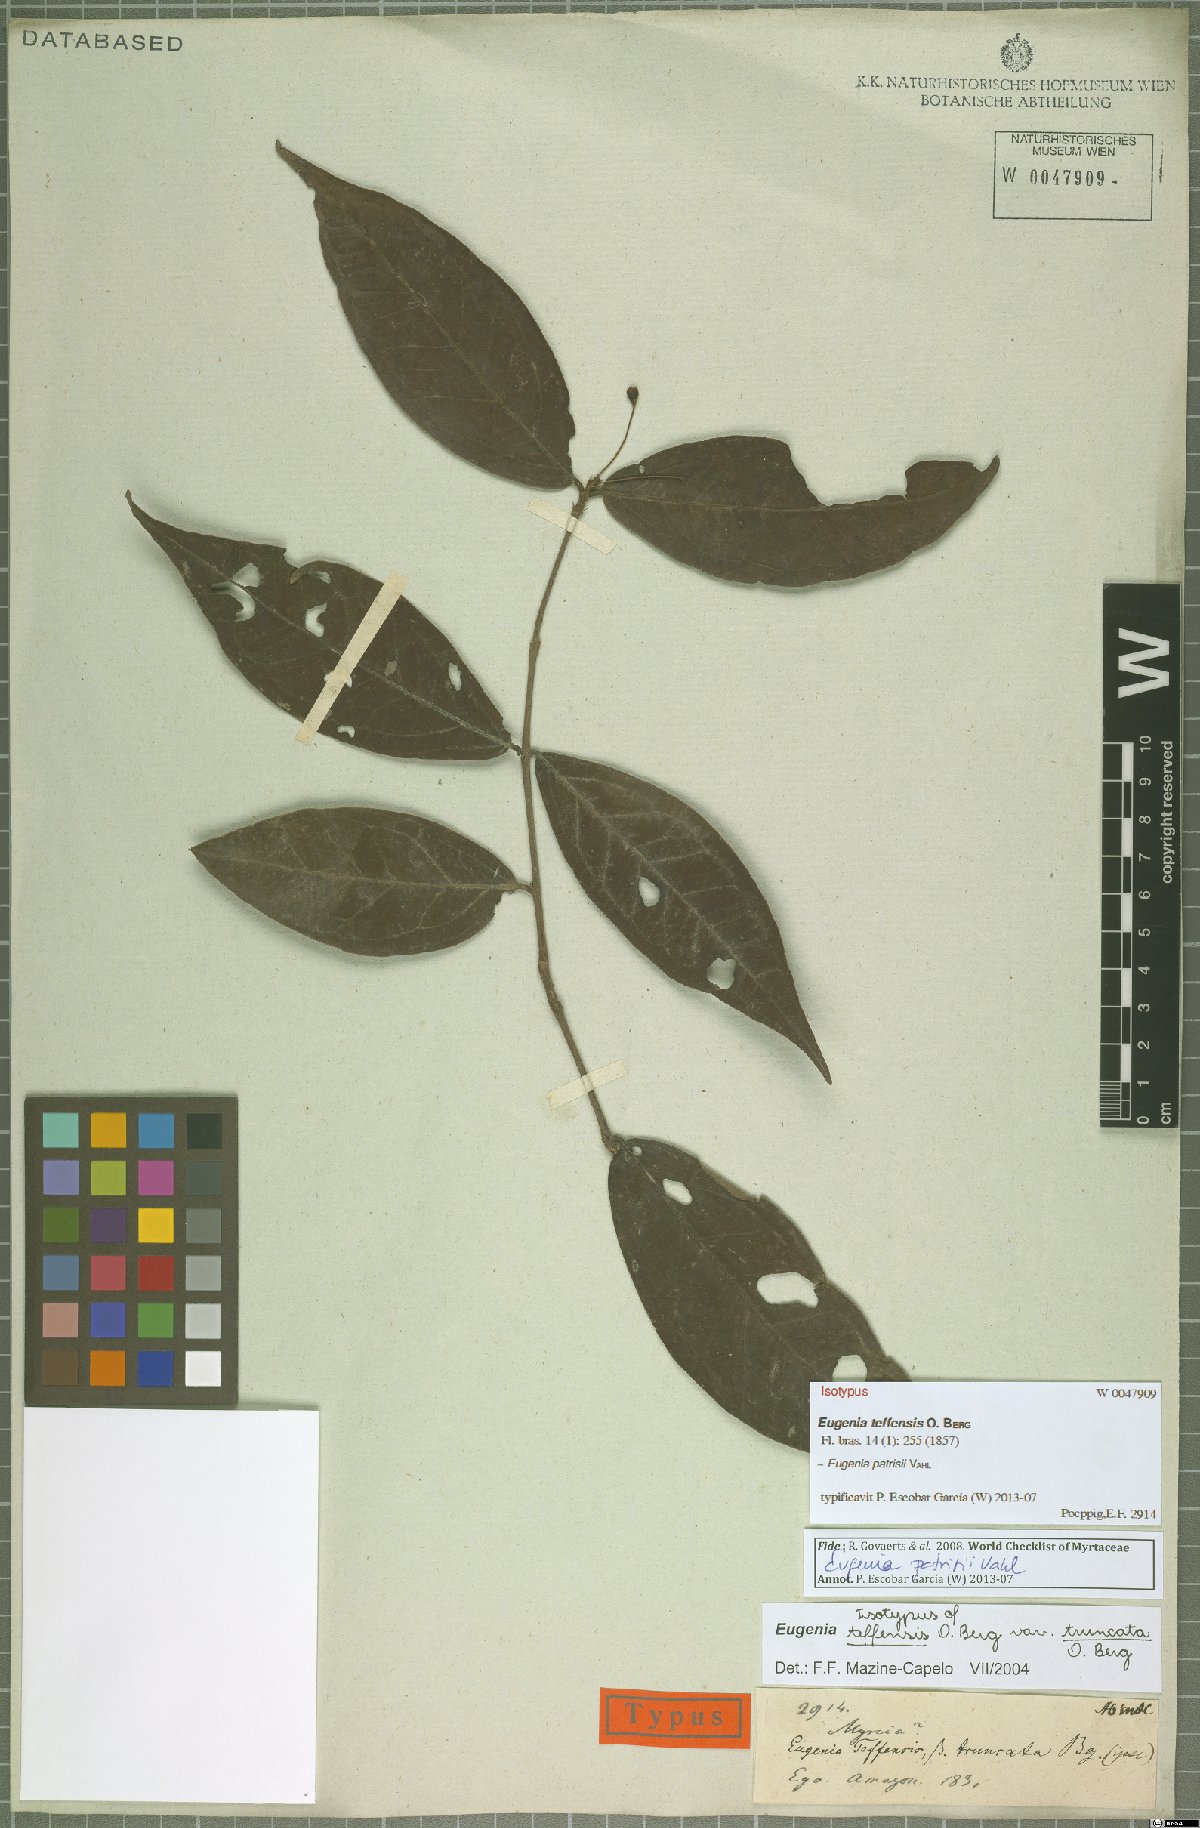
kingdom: Plantae
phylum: Tracheophyta
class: Magnoliopsida
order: Myrtales
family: Myrtaceae
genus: Eugenia
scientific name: Eugenia patrisii
